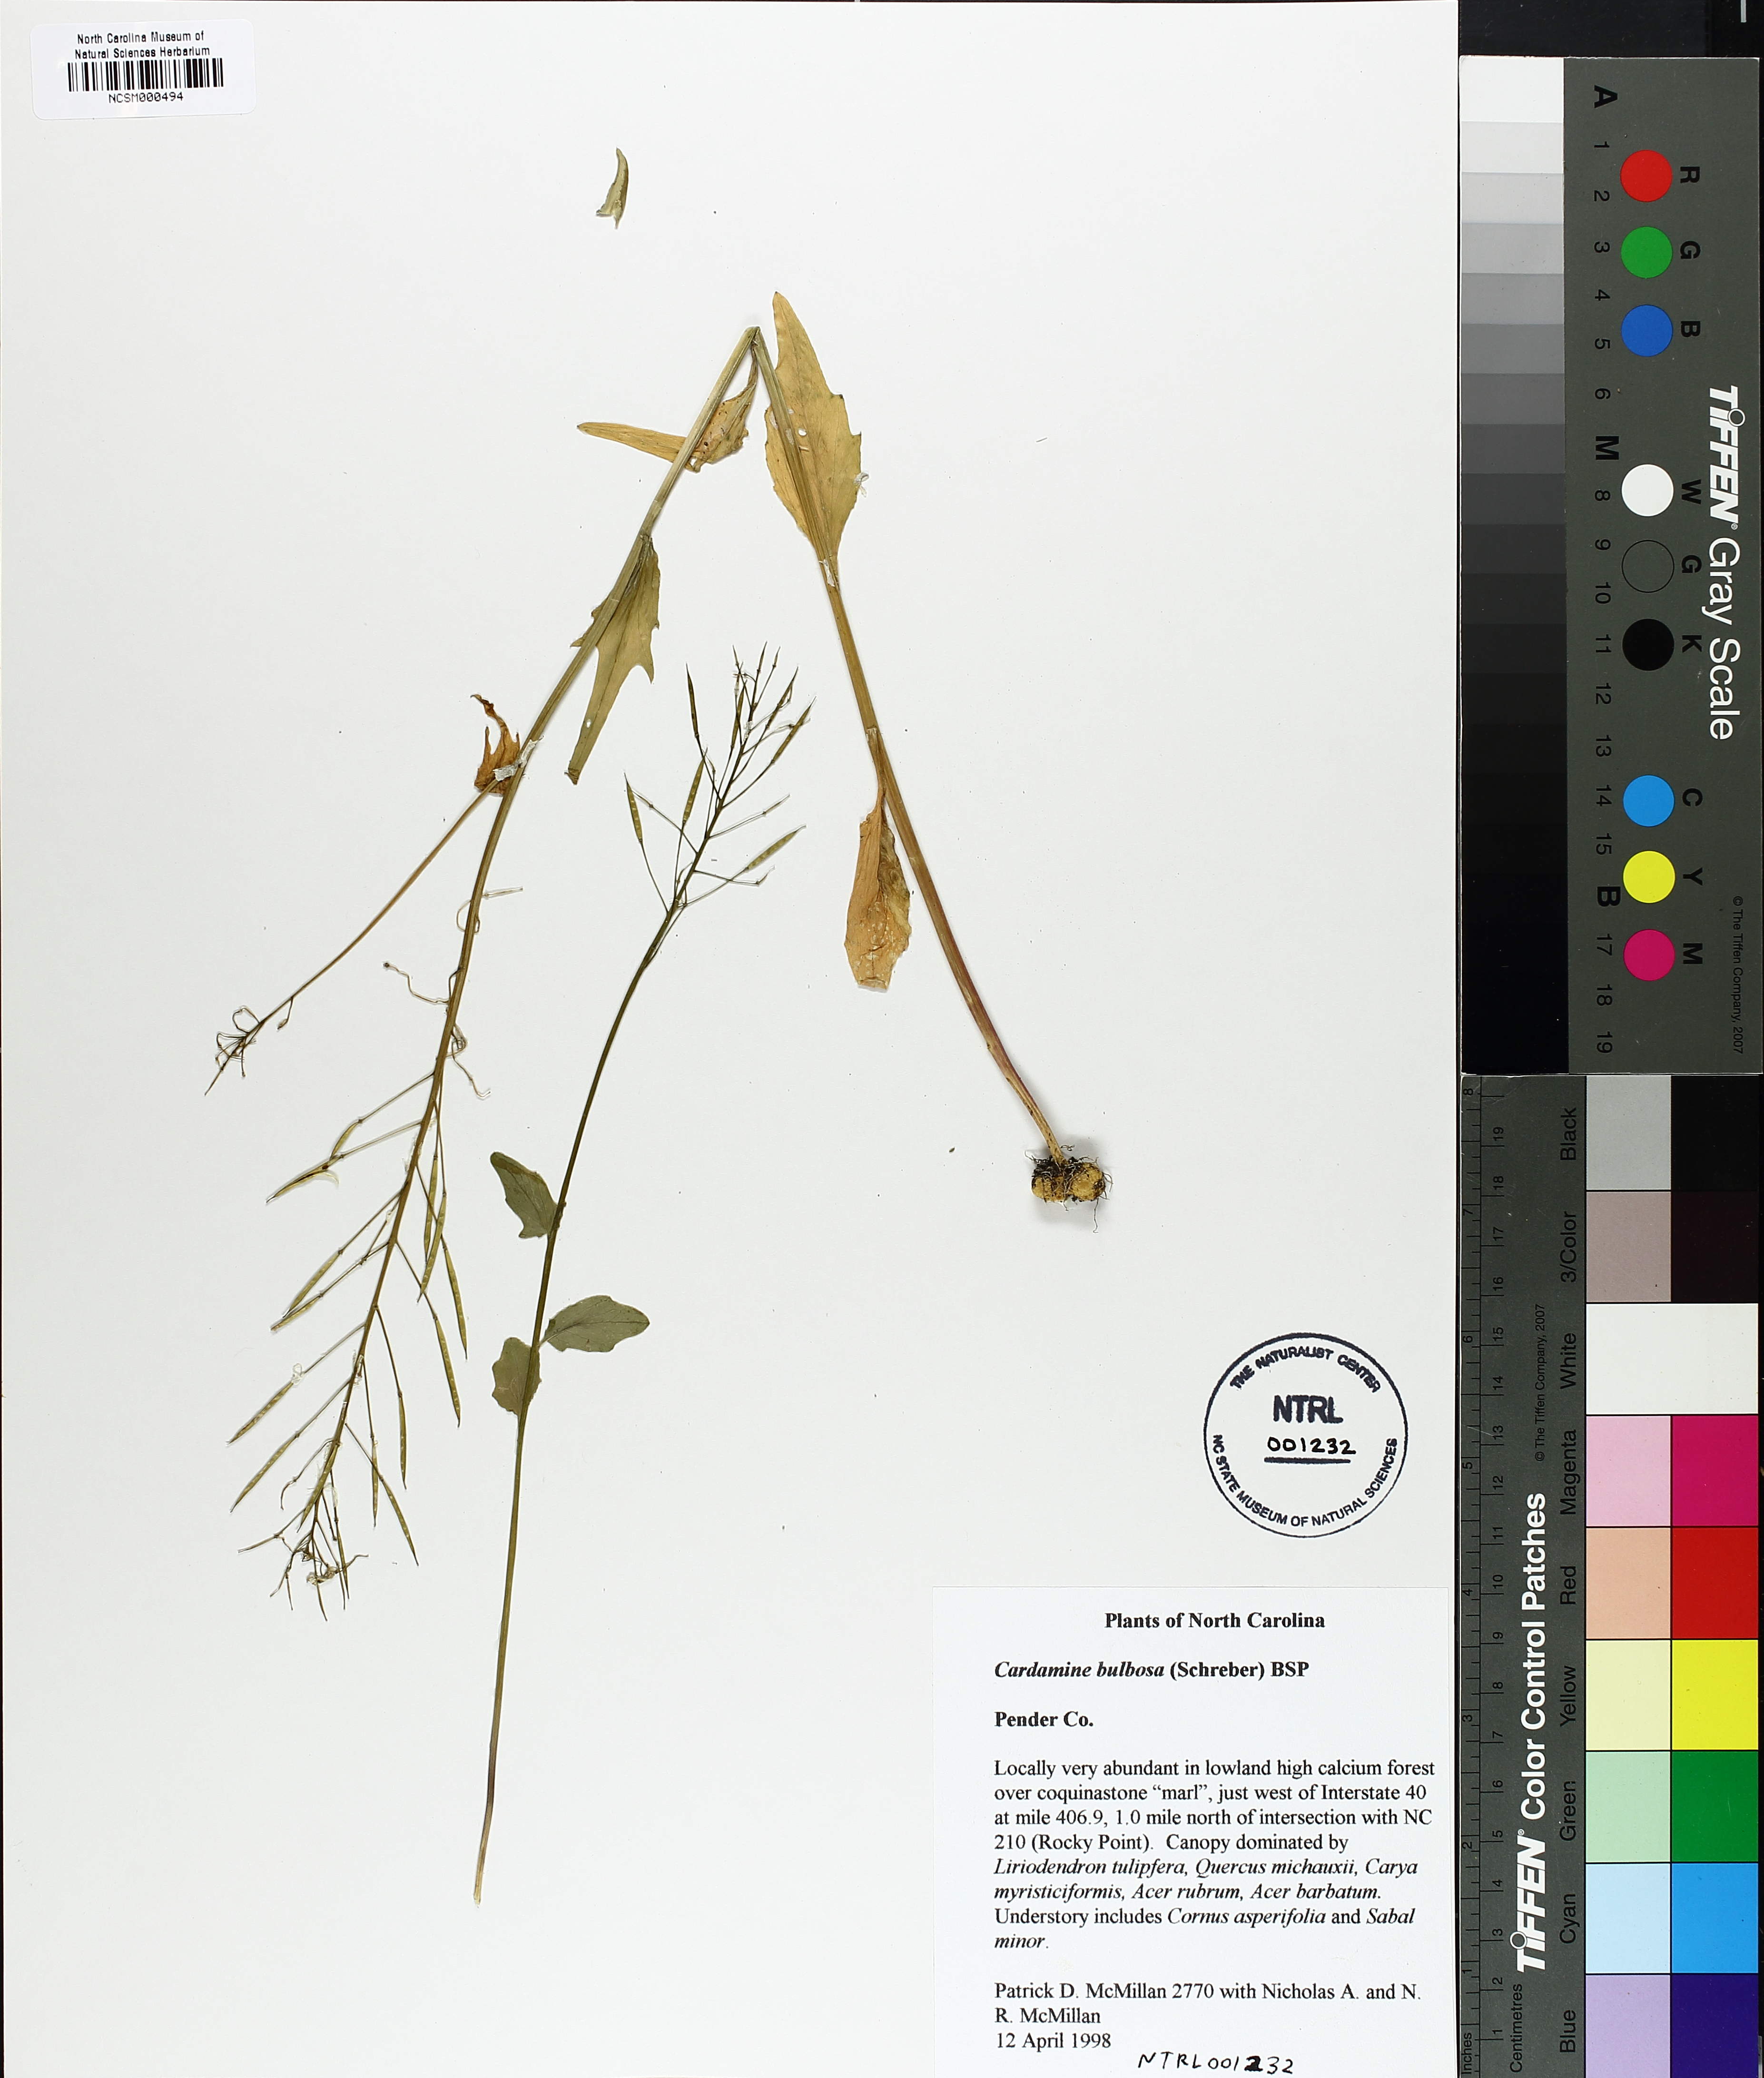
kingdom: Plantae
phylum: Tracheophyta
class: Magnoliopsida
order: Brassicales
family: Brassicaceae
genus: Cardamine
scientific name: Cardamine bulbosa
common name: Spring cress
